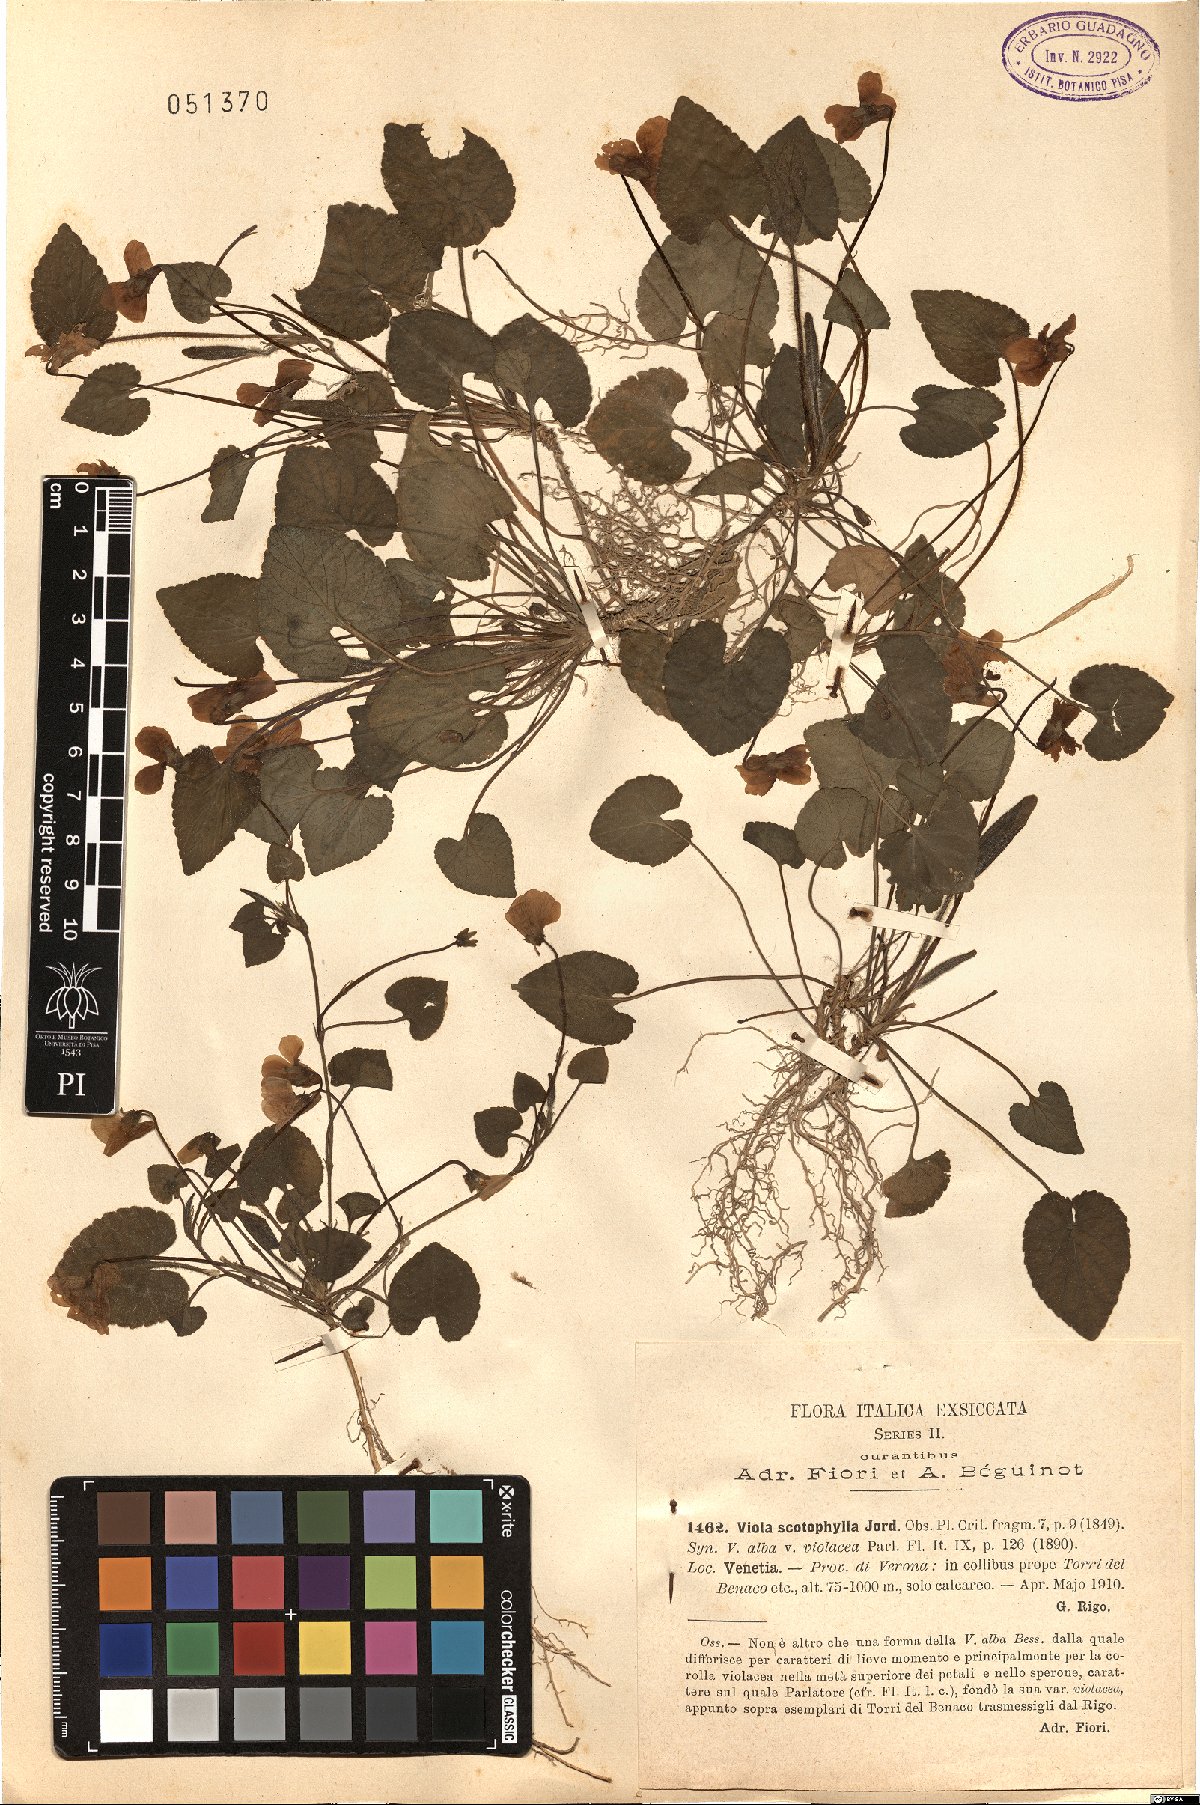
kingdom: Plantae
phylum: Tracheophyta
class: Magnoliopsida
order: Malpighiales
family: Violaceae
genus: Viola
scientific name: Viola alba
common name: White violet
